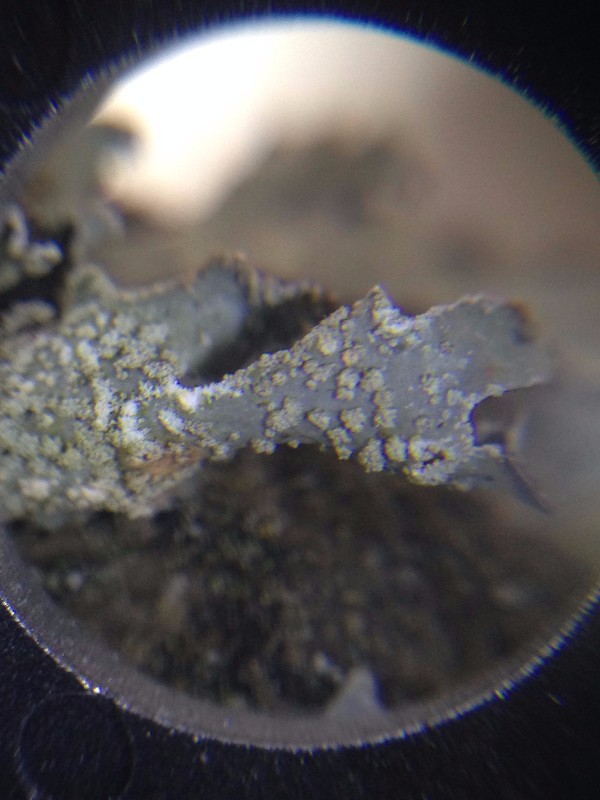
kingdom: Fungi
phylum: Ascomycota
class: Lecanoromycetes
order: Lecanorales
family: Parmeliaceae
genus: Parmelia
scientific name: Parmelia submontana
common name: langlobet skållav
